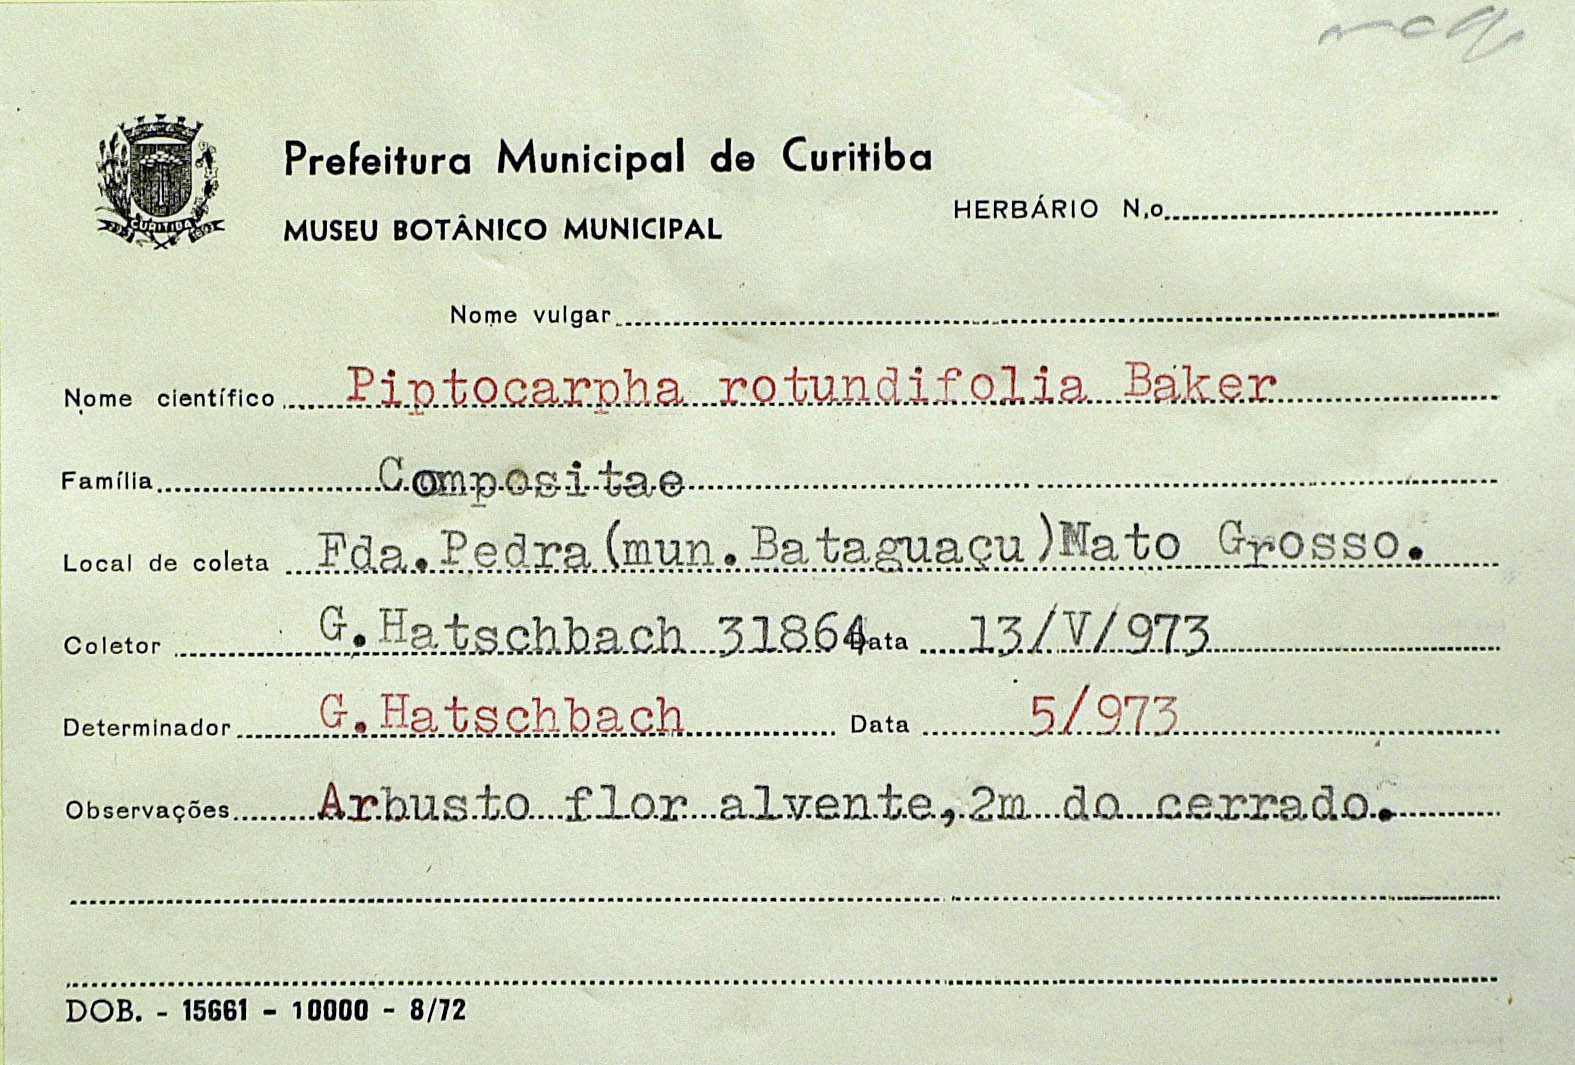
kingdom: Plantae
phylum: Tracheophyta
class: Magnoliopsida
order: Asterales
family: Asteraceae
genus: Piptocarpha
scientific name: Piptocarpha rotundifolia
